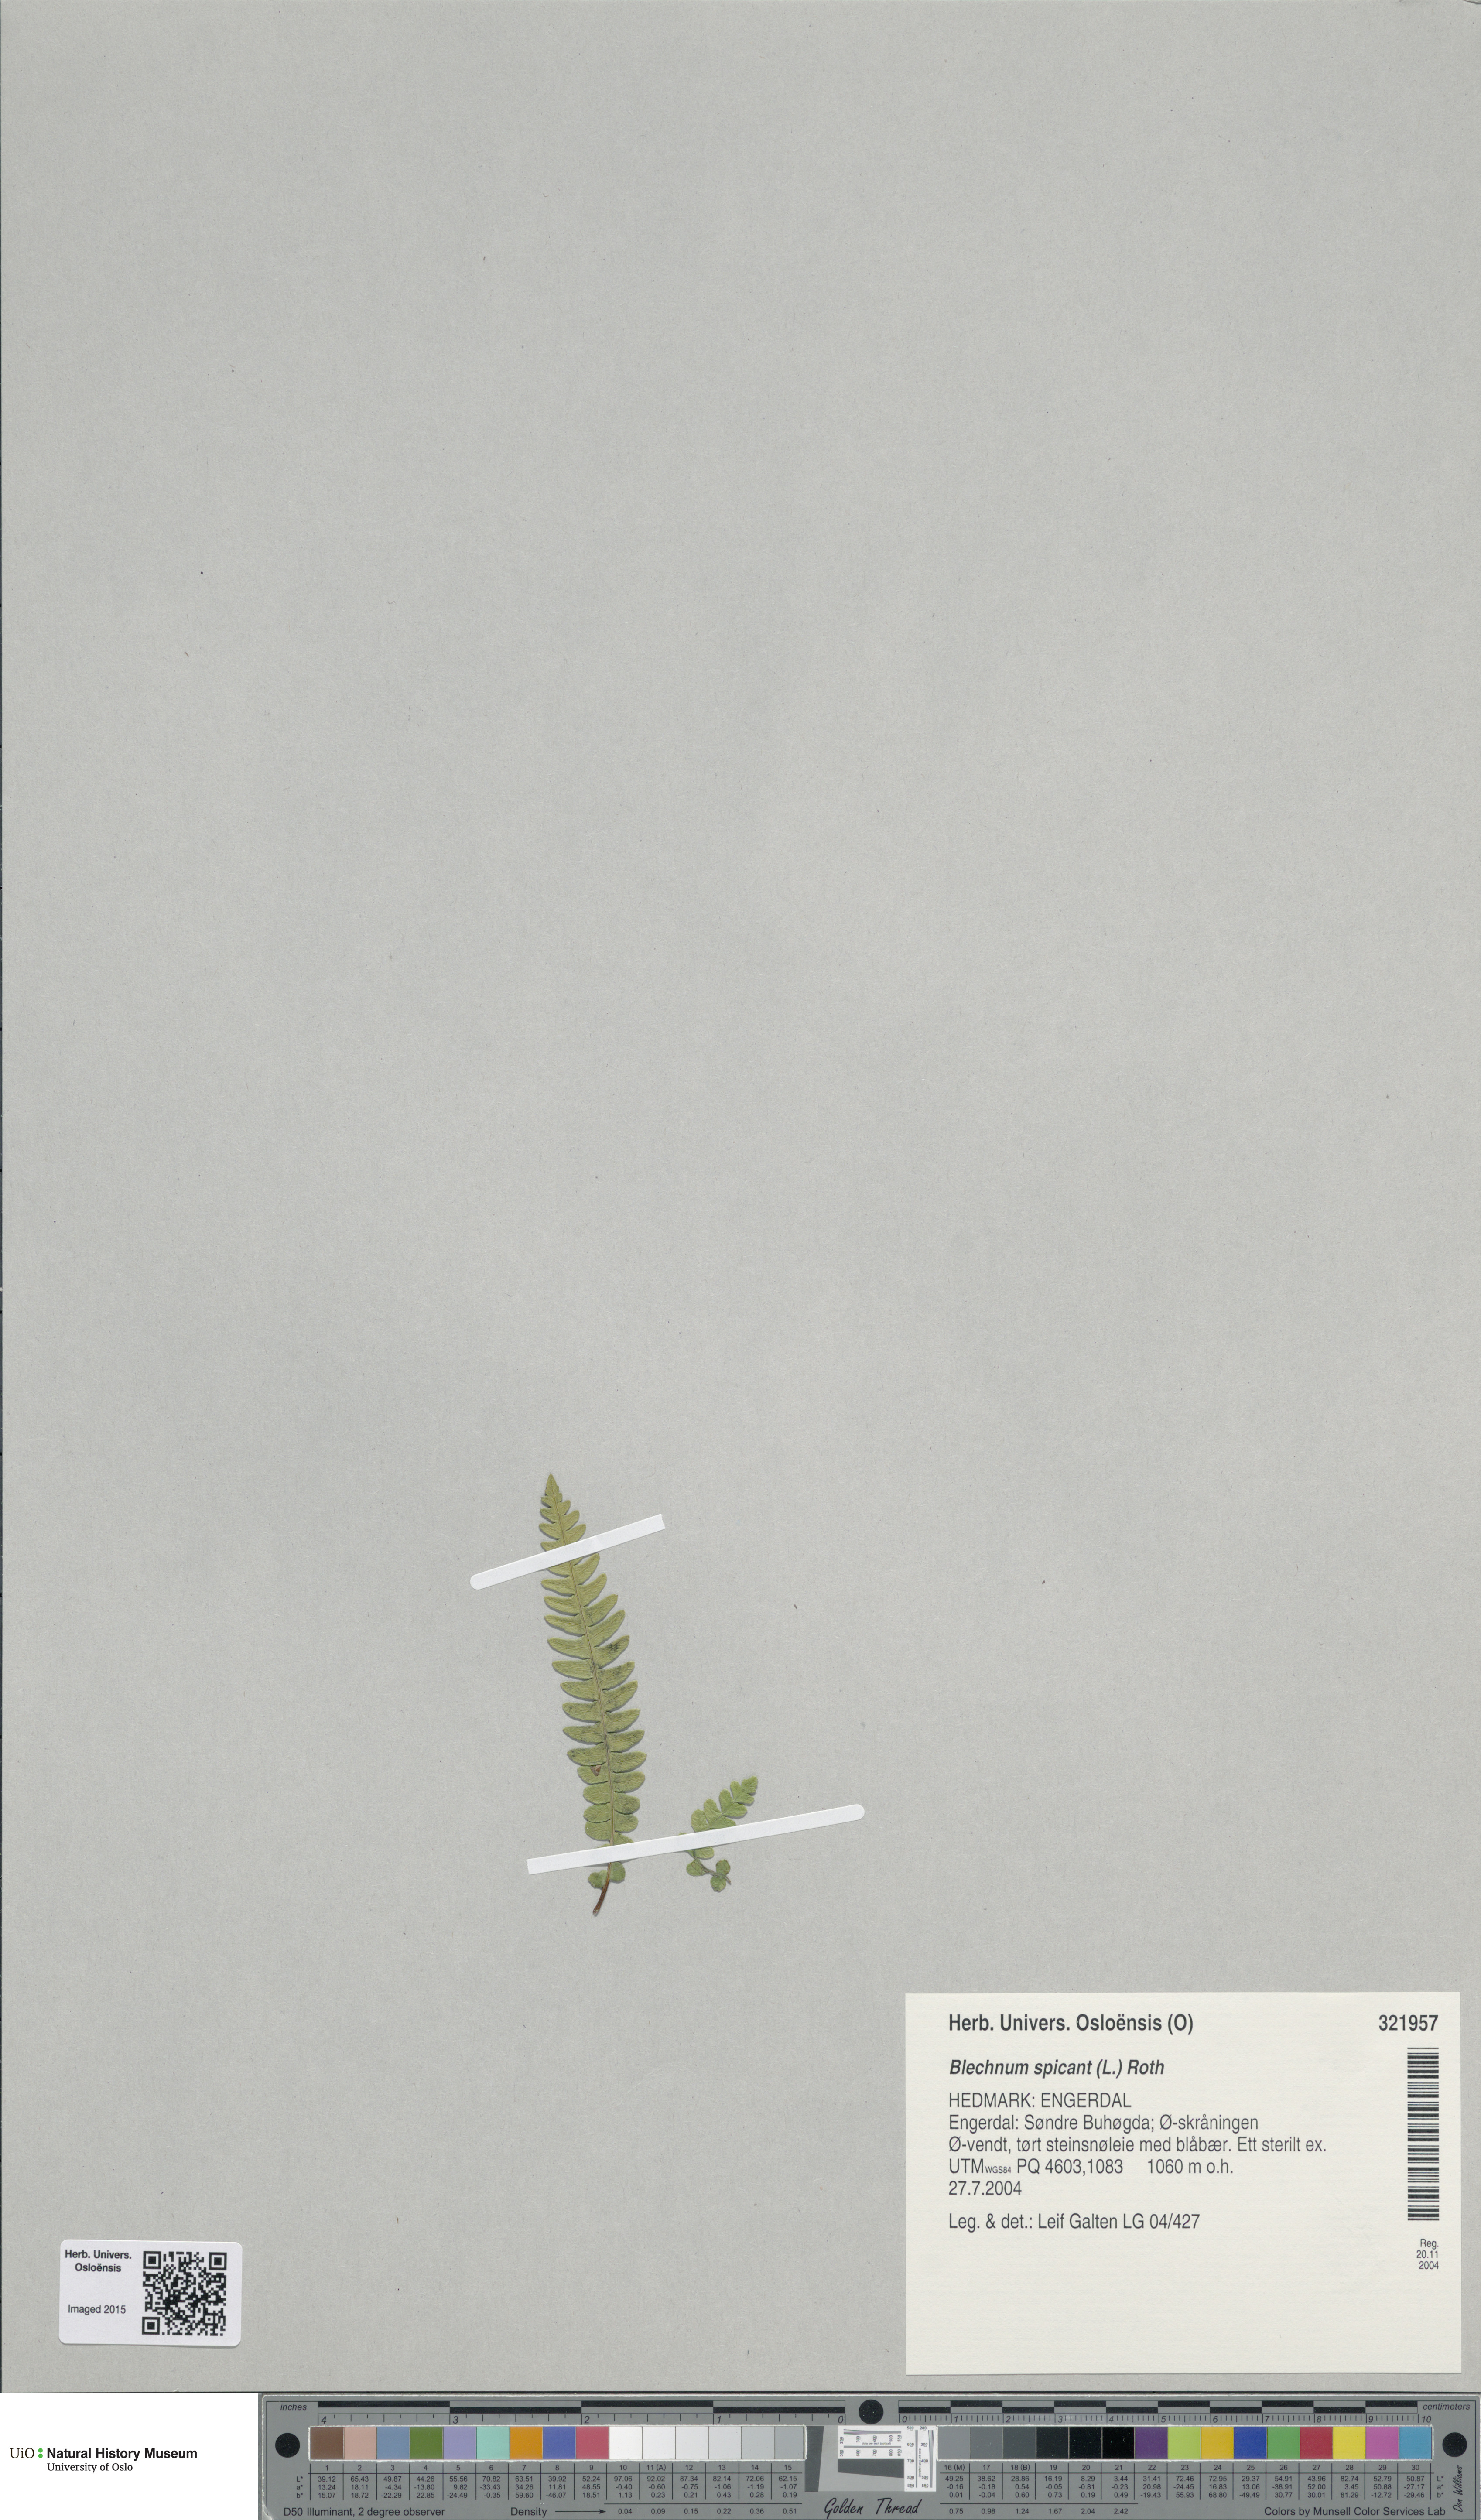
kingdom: Plantae
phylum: Tracheophyta
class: Polypodiopsida
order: Polypodiales
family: Blechnaceae
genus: Struthiopteris
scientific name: Struthiopteris spicant
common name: Deer fern
